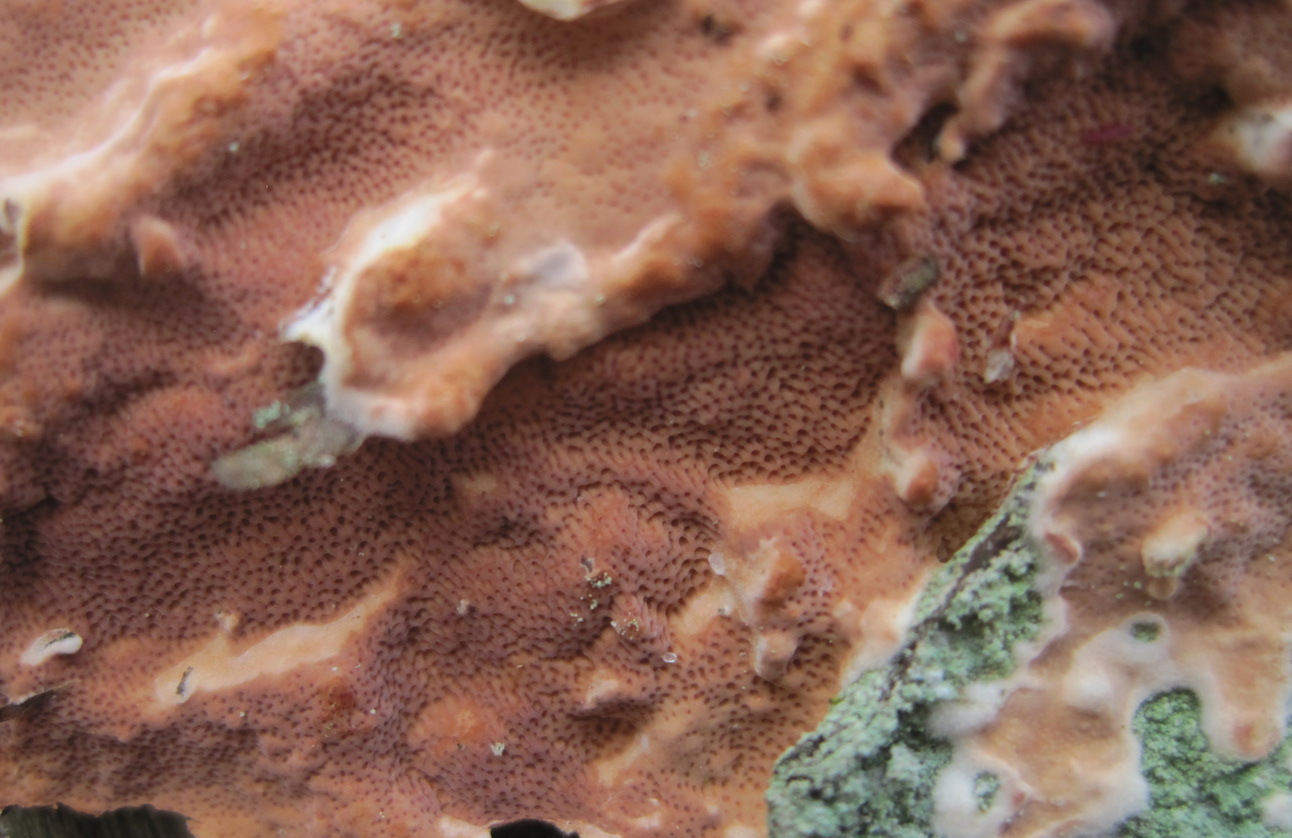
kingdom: Fungi
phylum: Basidiomycota
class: Agaricomycetes
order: Polyporales
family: Irpicaceae
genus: Meruliopsis
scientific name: Meruliopsis taxicola
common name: purpurbrun foldporesvamp
